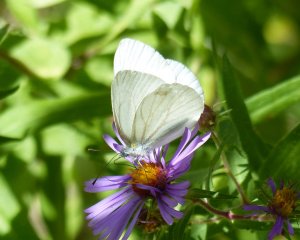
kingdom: Animalia
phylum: Arthropoda
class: Insecta
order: Lepidoptera
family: Pieridae
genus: Pieris
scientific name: Pieris oleracea
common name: Mustard White
